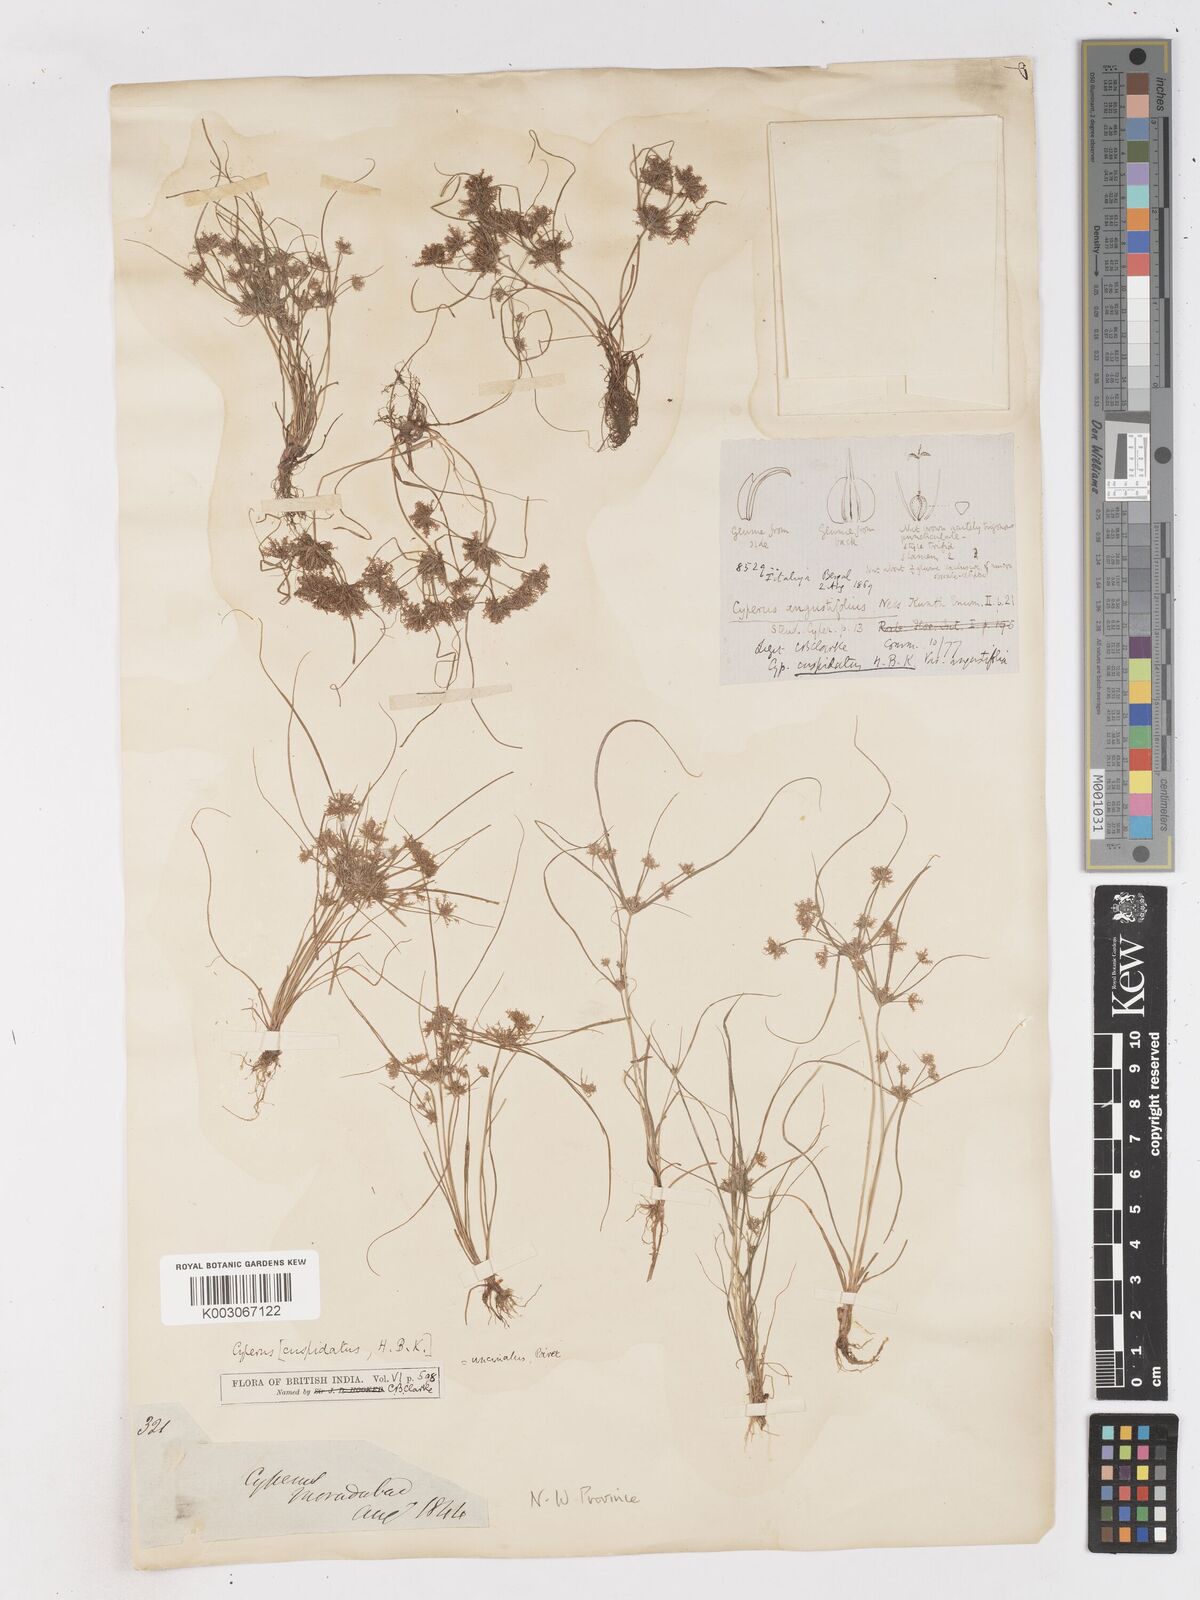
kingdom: Plantae
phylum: Tracheophyta
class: Liliopsida
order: Poales
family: Cyperaceae
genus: Cyperus
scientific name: Cyperus cuspidatus
